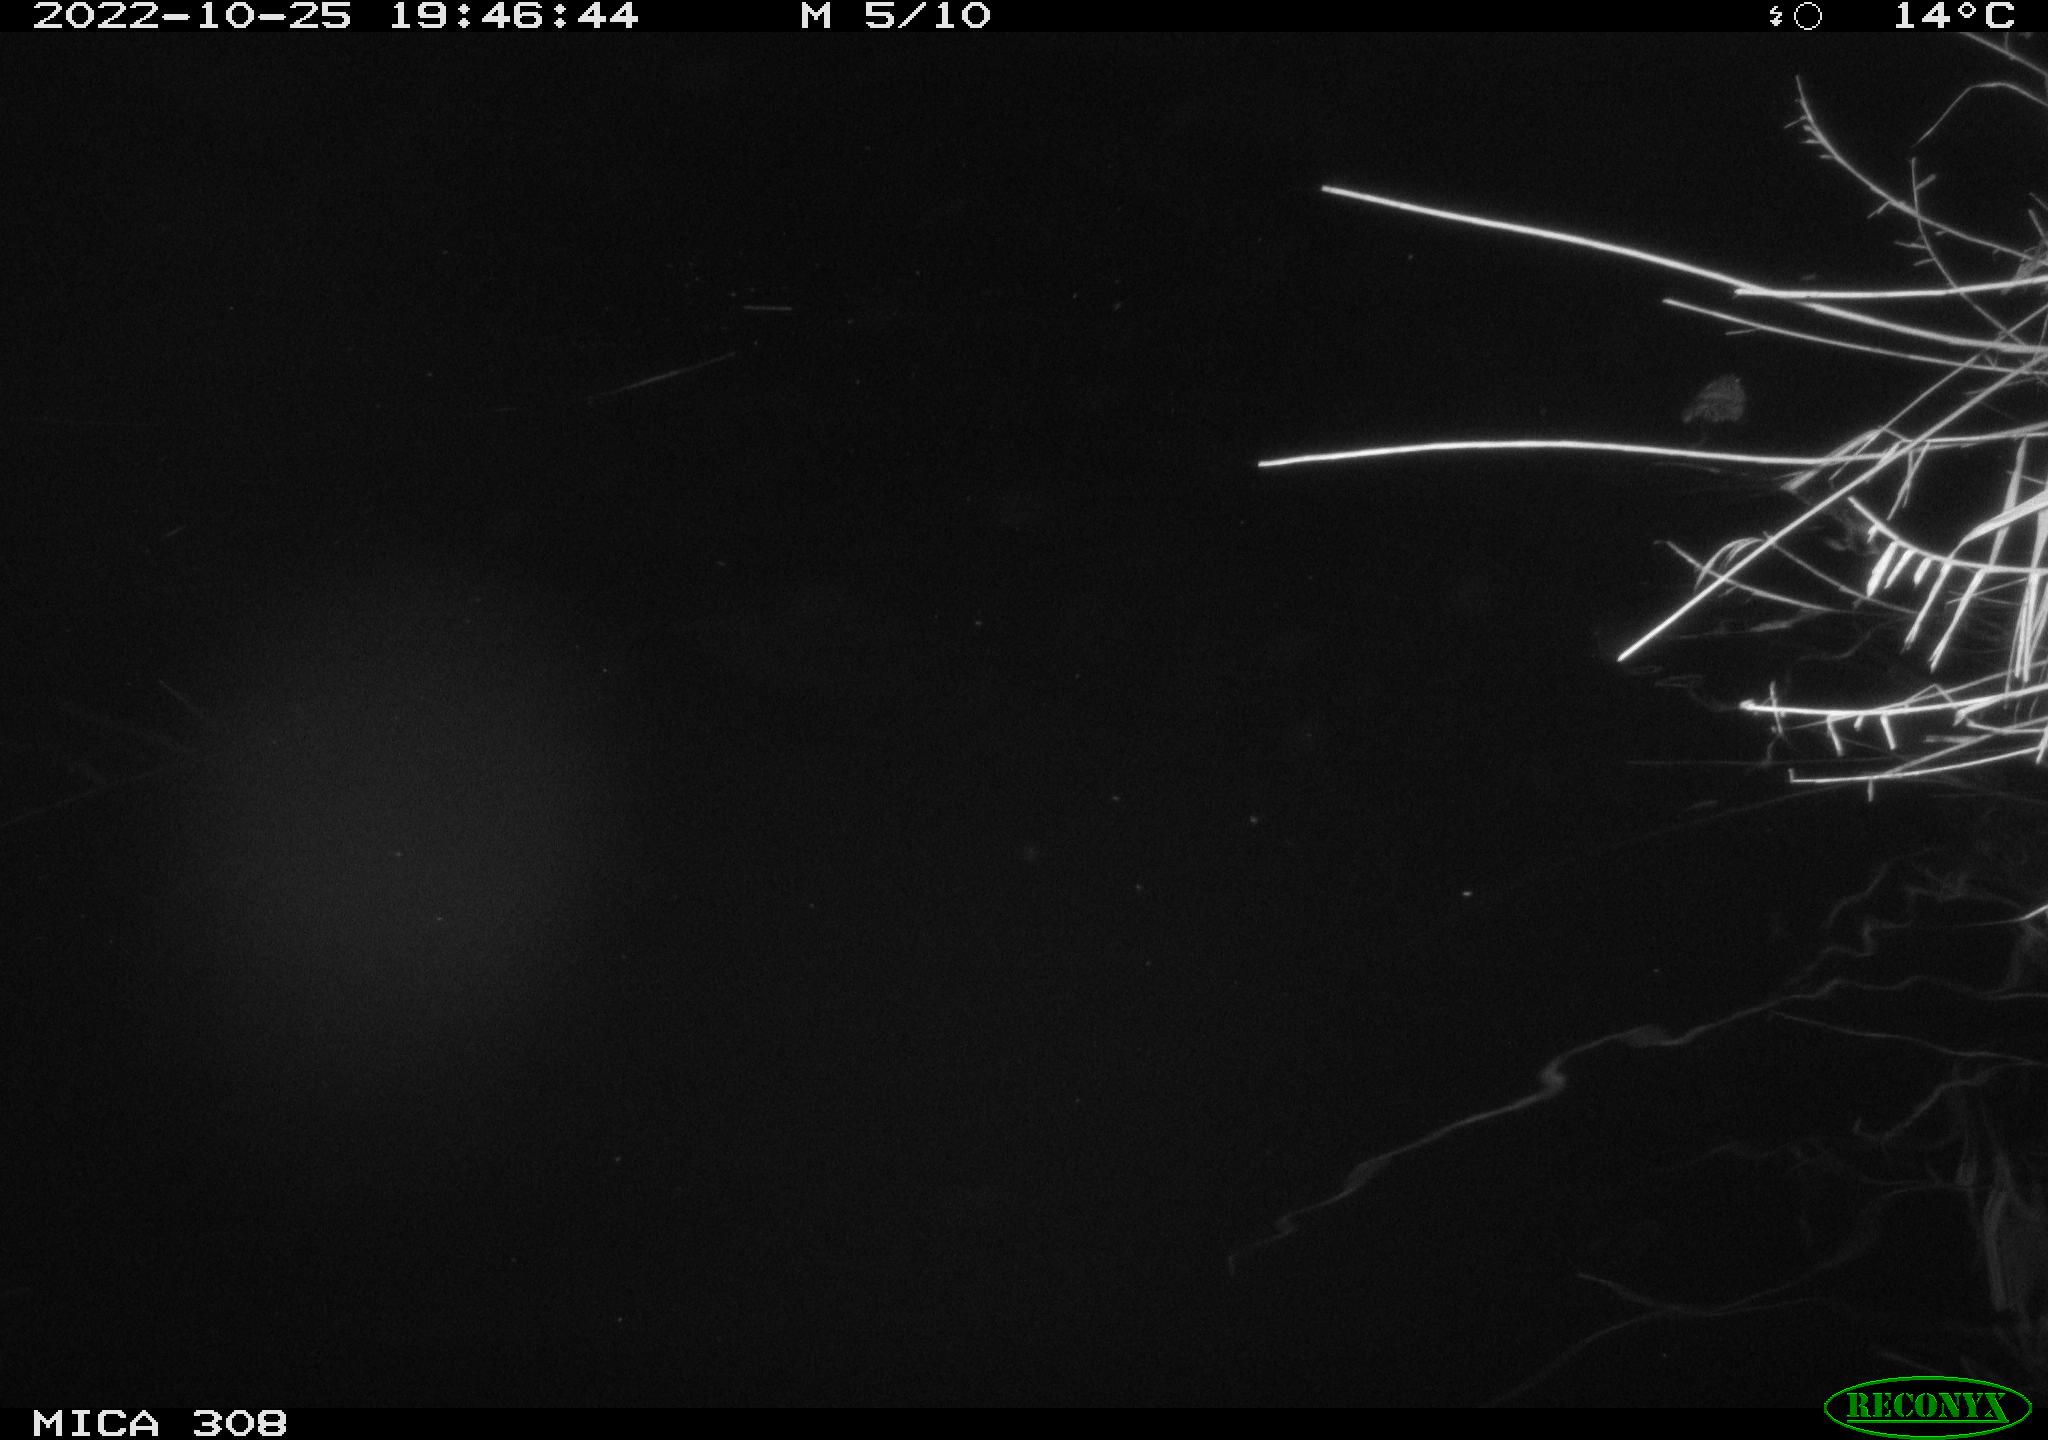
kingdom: Animalia
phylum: Chordata
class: Mammalia
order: Rodentia
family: Cricetidae
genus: Ondatra
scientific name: Ondatra zibethicus
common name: Muskrat
